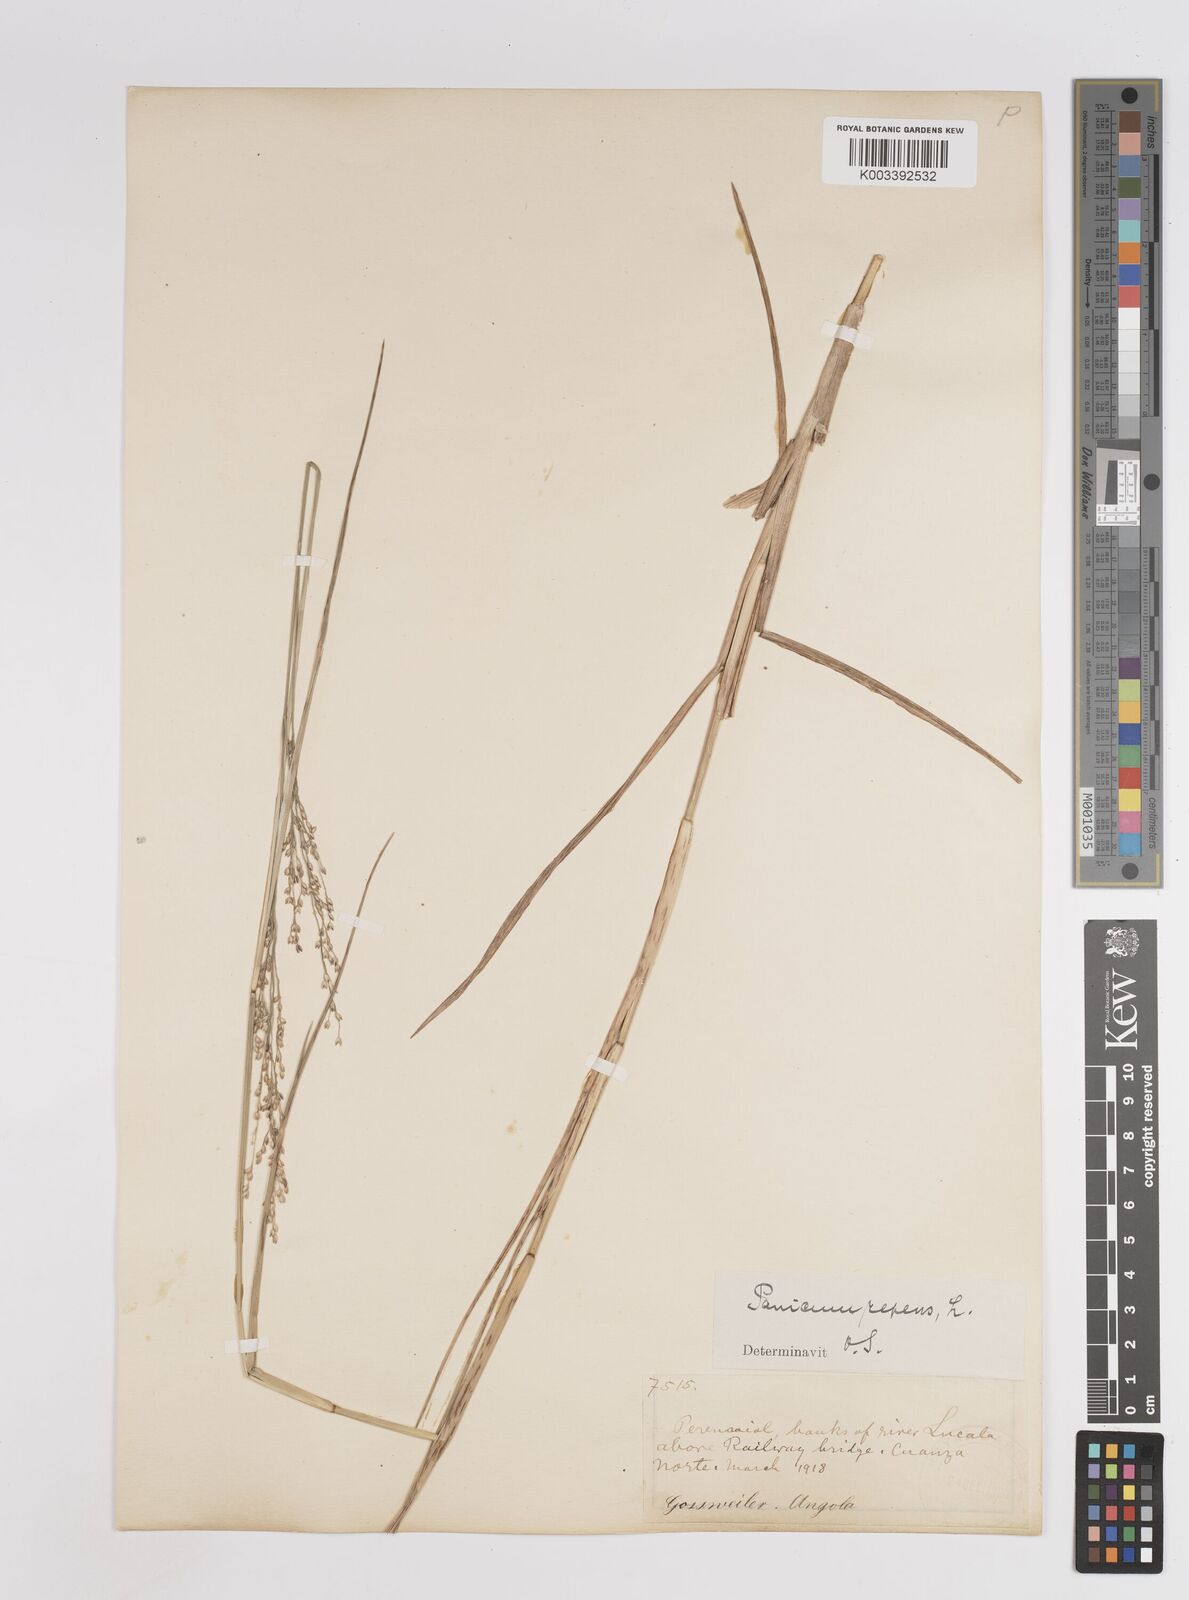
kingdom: Plantae
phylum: Tracheophyta
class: Liliopsida
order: Poales
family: Poaceae
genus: Panicum
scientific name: Panicum repens
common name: Torpedo grass
